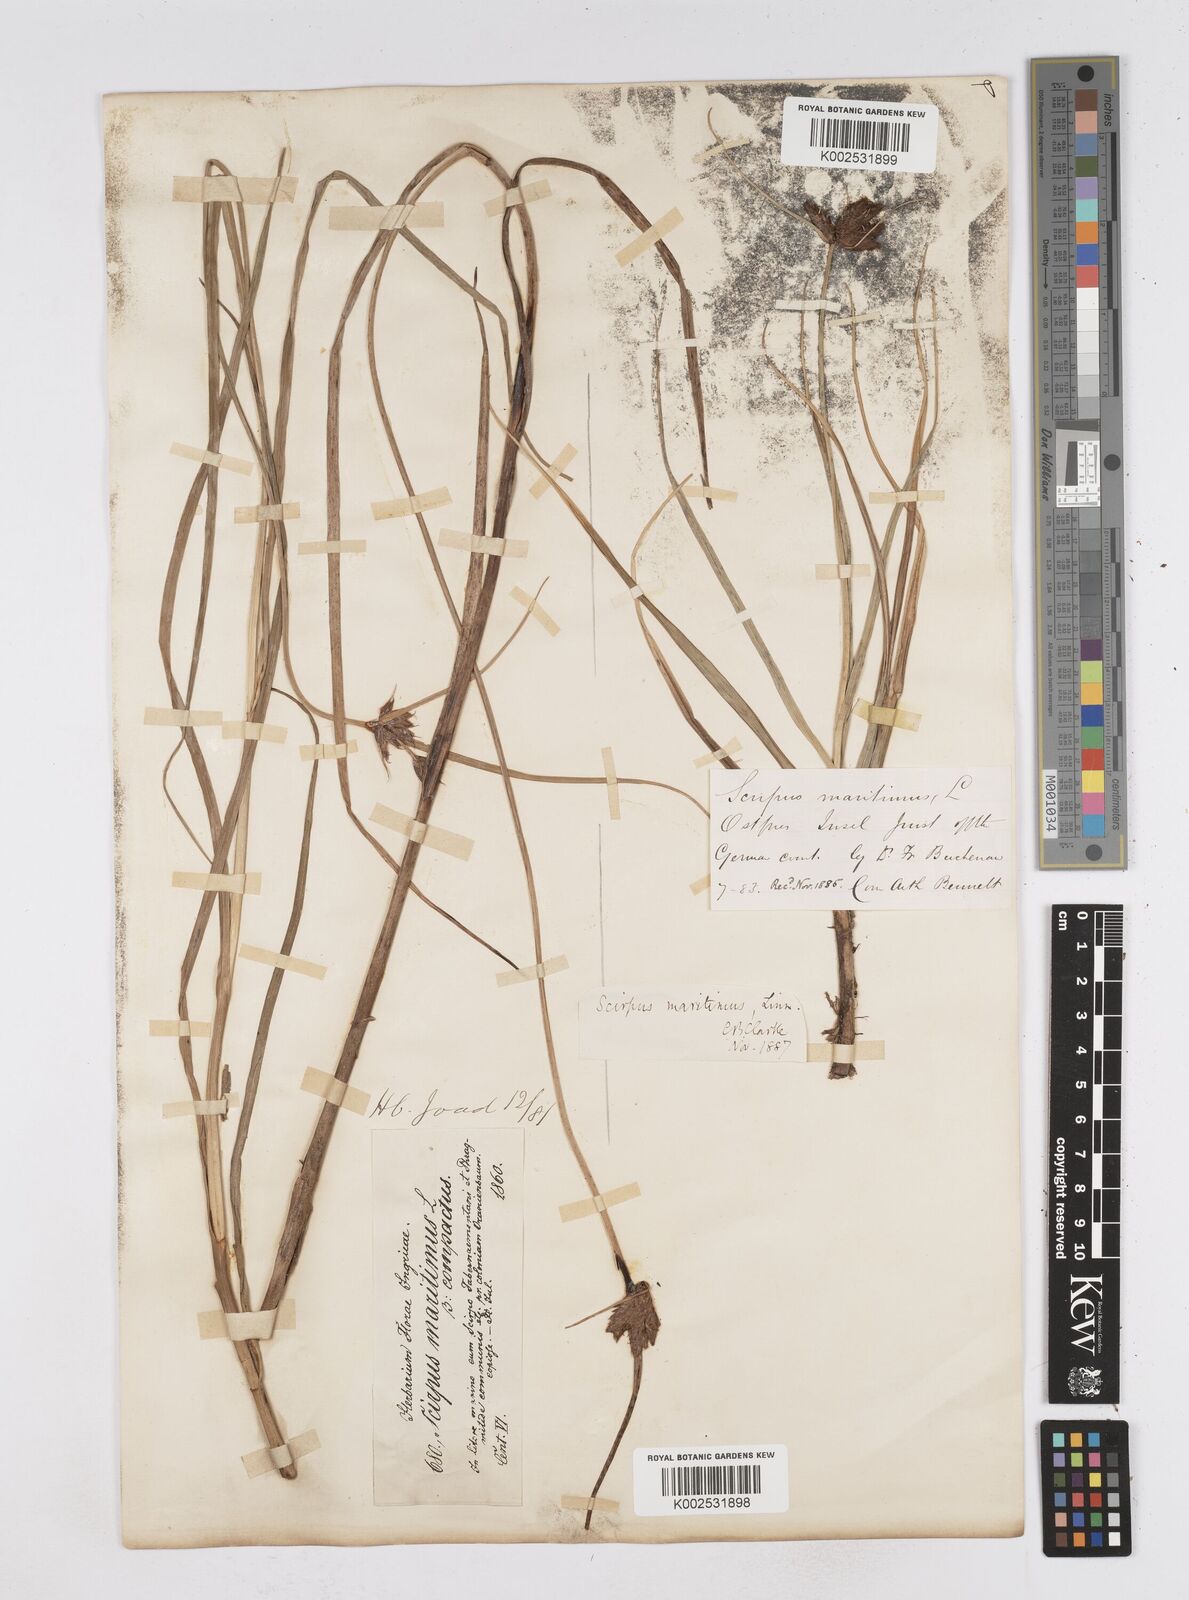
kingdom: Plantae
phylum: Tracheophyta
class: Liliopsida
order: Poales
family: Cyperaceae
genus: Bolboschoenus
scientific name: Bolboschoenus maritimus
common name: Sea club-rush
